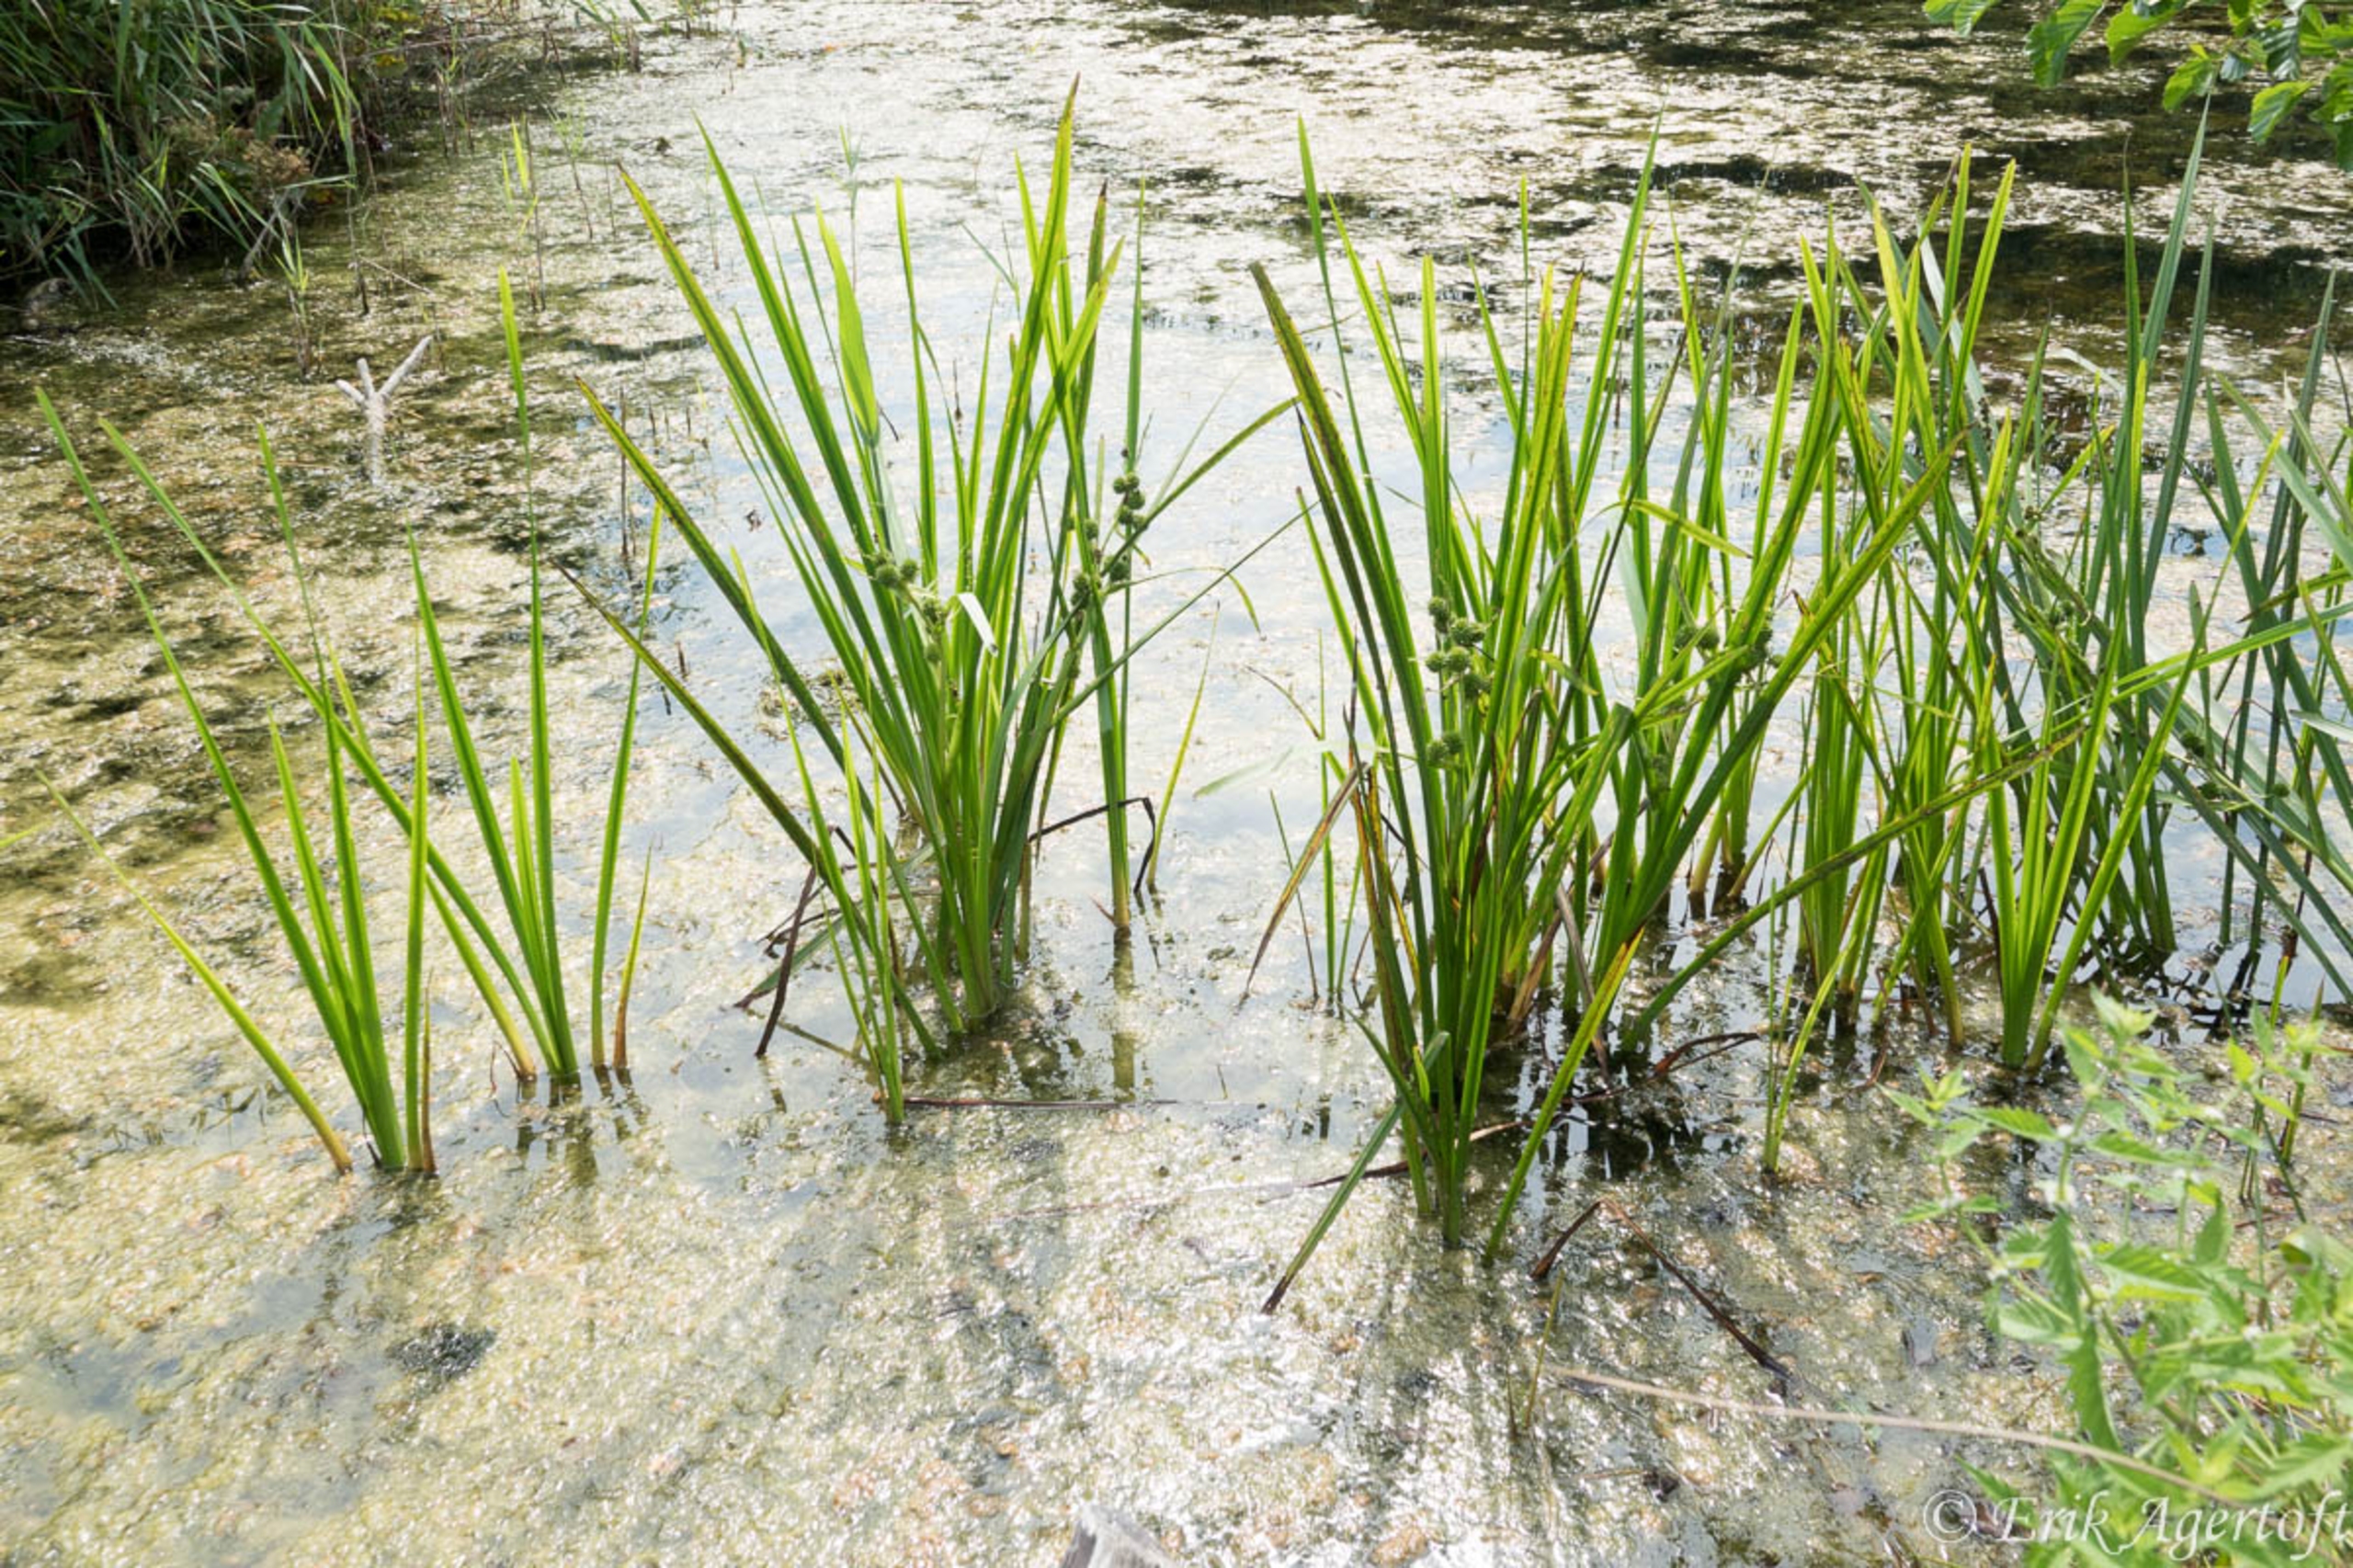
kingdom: Plantae
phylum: Tracheophyta
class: Liliopsida
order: Poales
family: Typhaceae
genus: Sparganium
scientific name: Sparganium erectum
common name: Sodfarvet pindsvineknop
